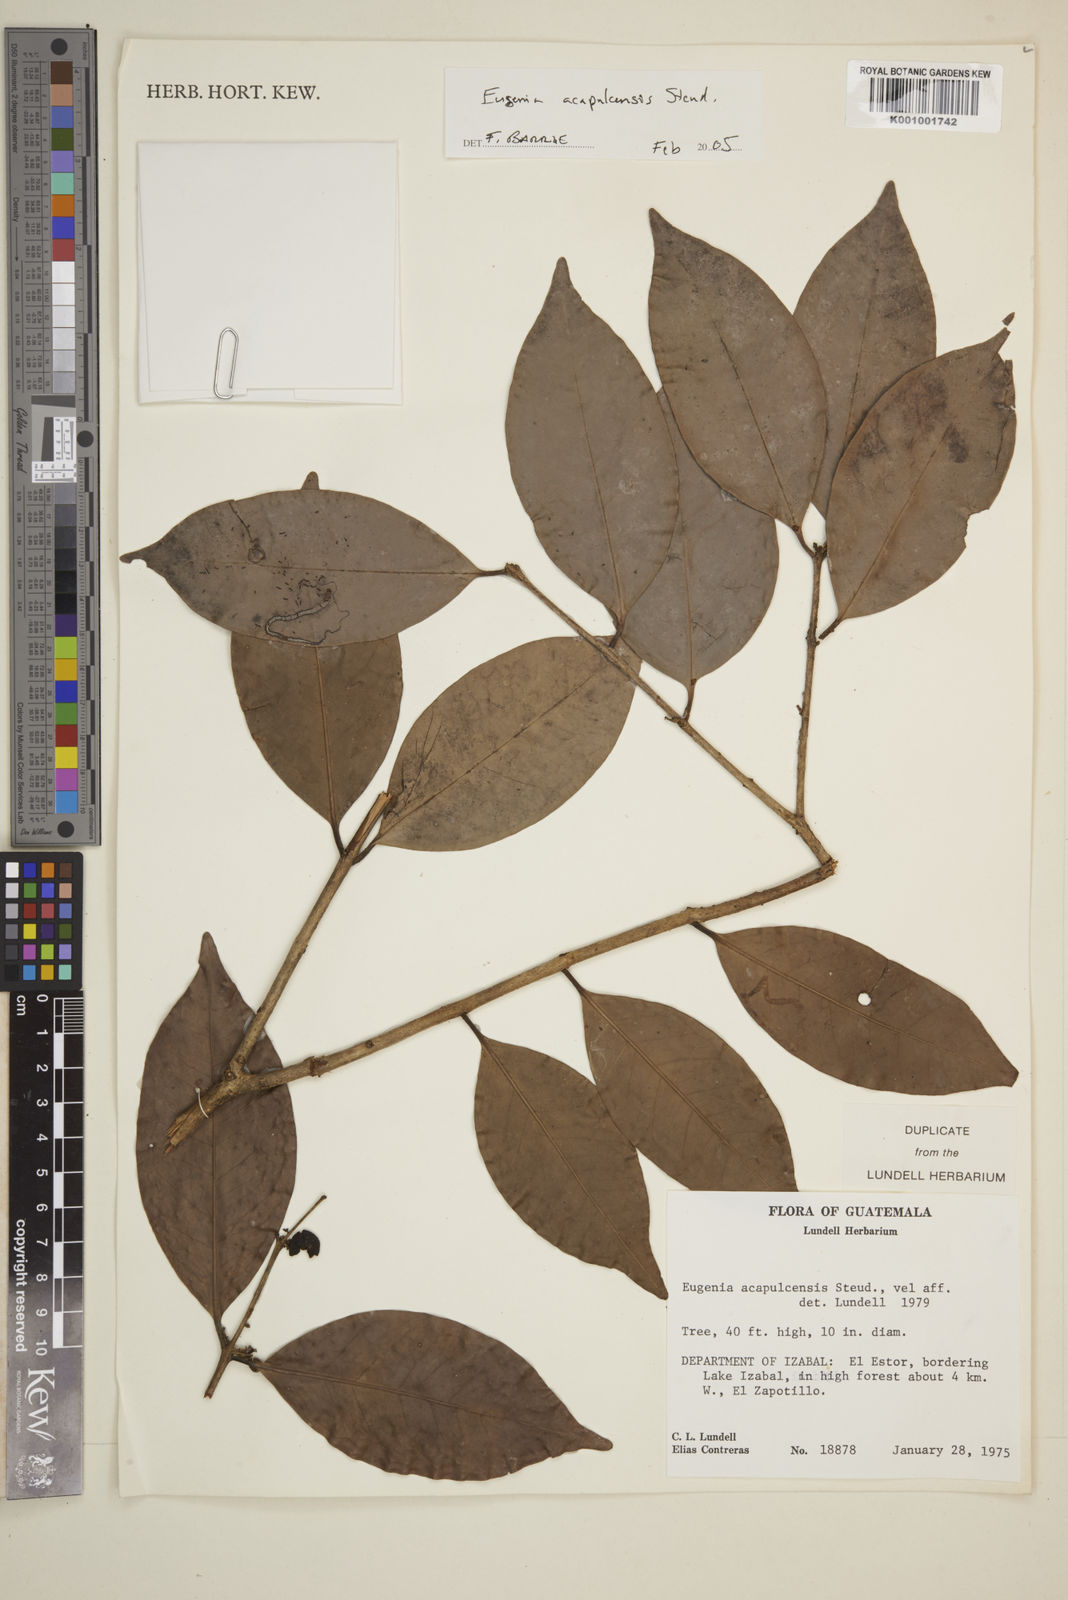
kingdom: Plantae
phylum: Tracheophyta
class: Magnoliopsida
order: Myrtales
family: Myrtaceae
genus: Eugenia
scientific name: Eugenia acapulcensis
